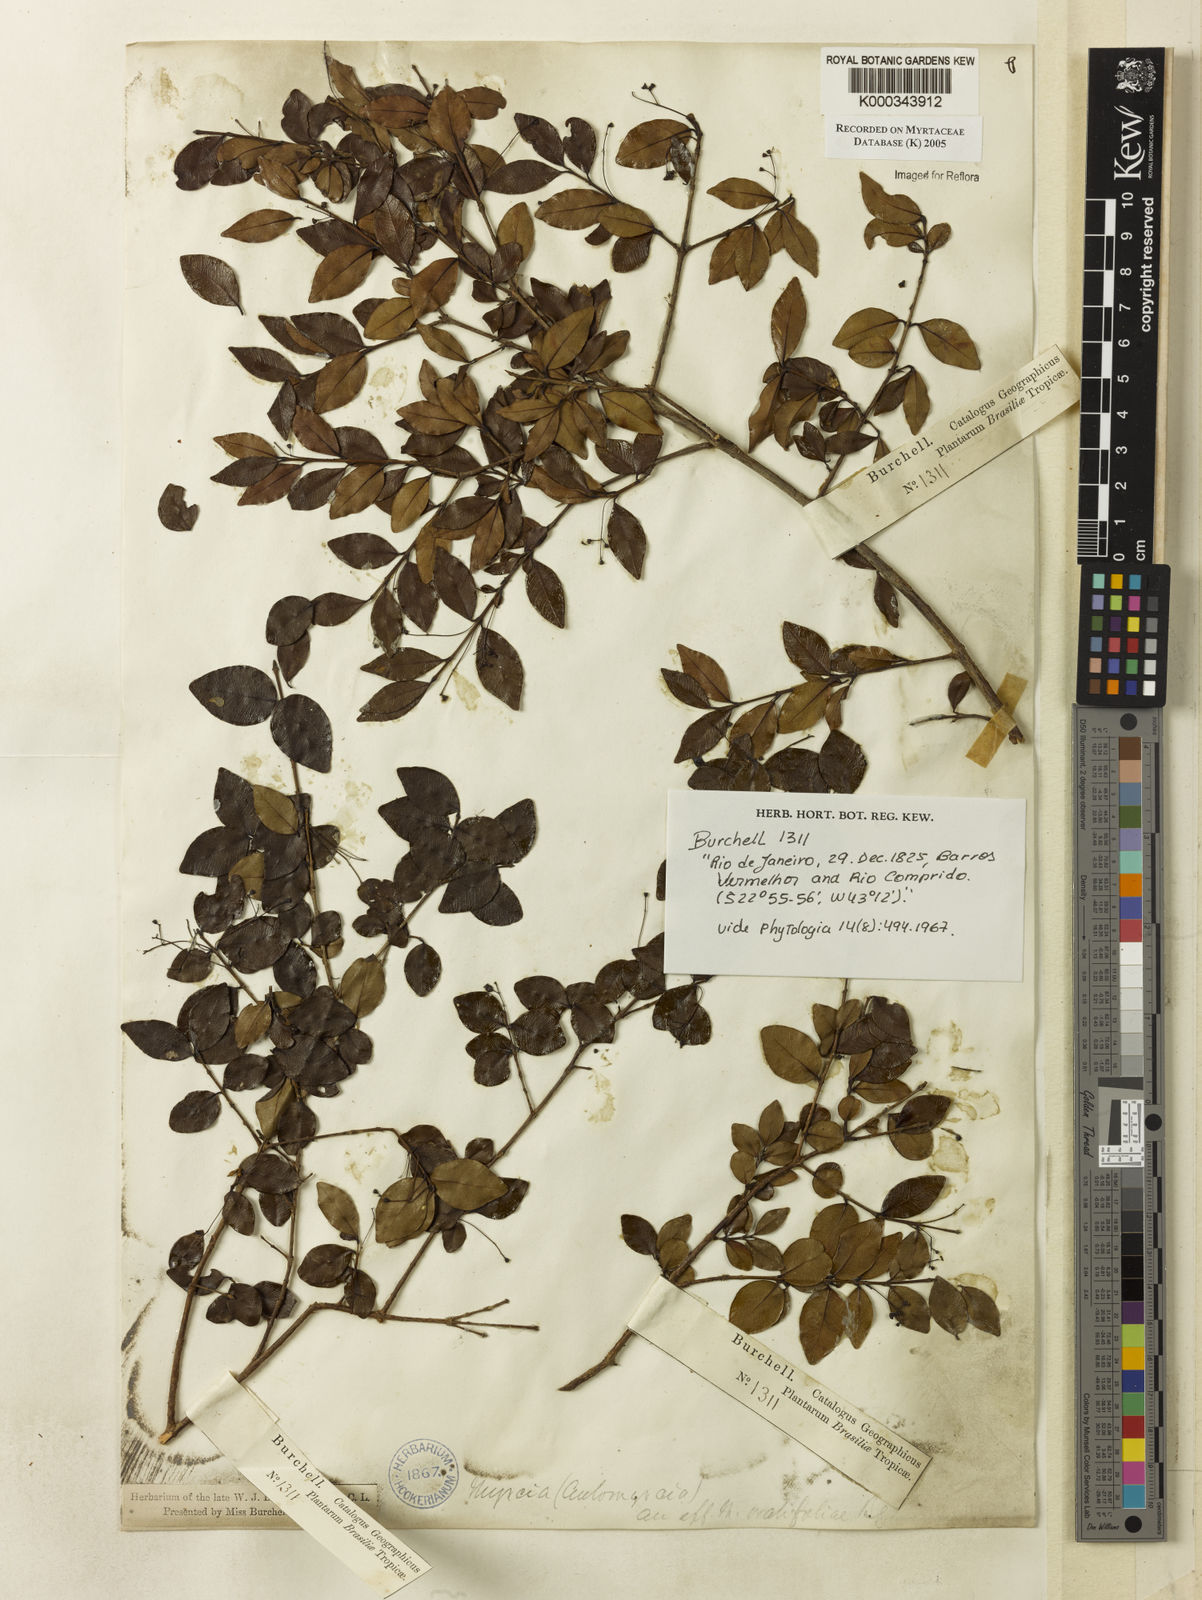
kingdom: Plantae
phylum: Tracheophyta
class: Magnoliopsida
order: Myrtales
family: Myrtaceae
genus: Myrcia
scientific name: Myrcia multiflora
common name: Pedra hume
